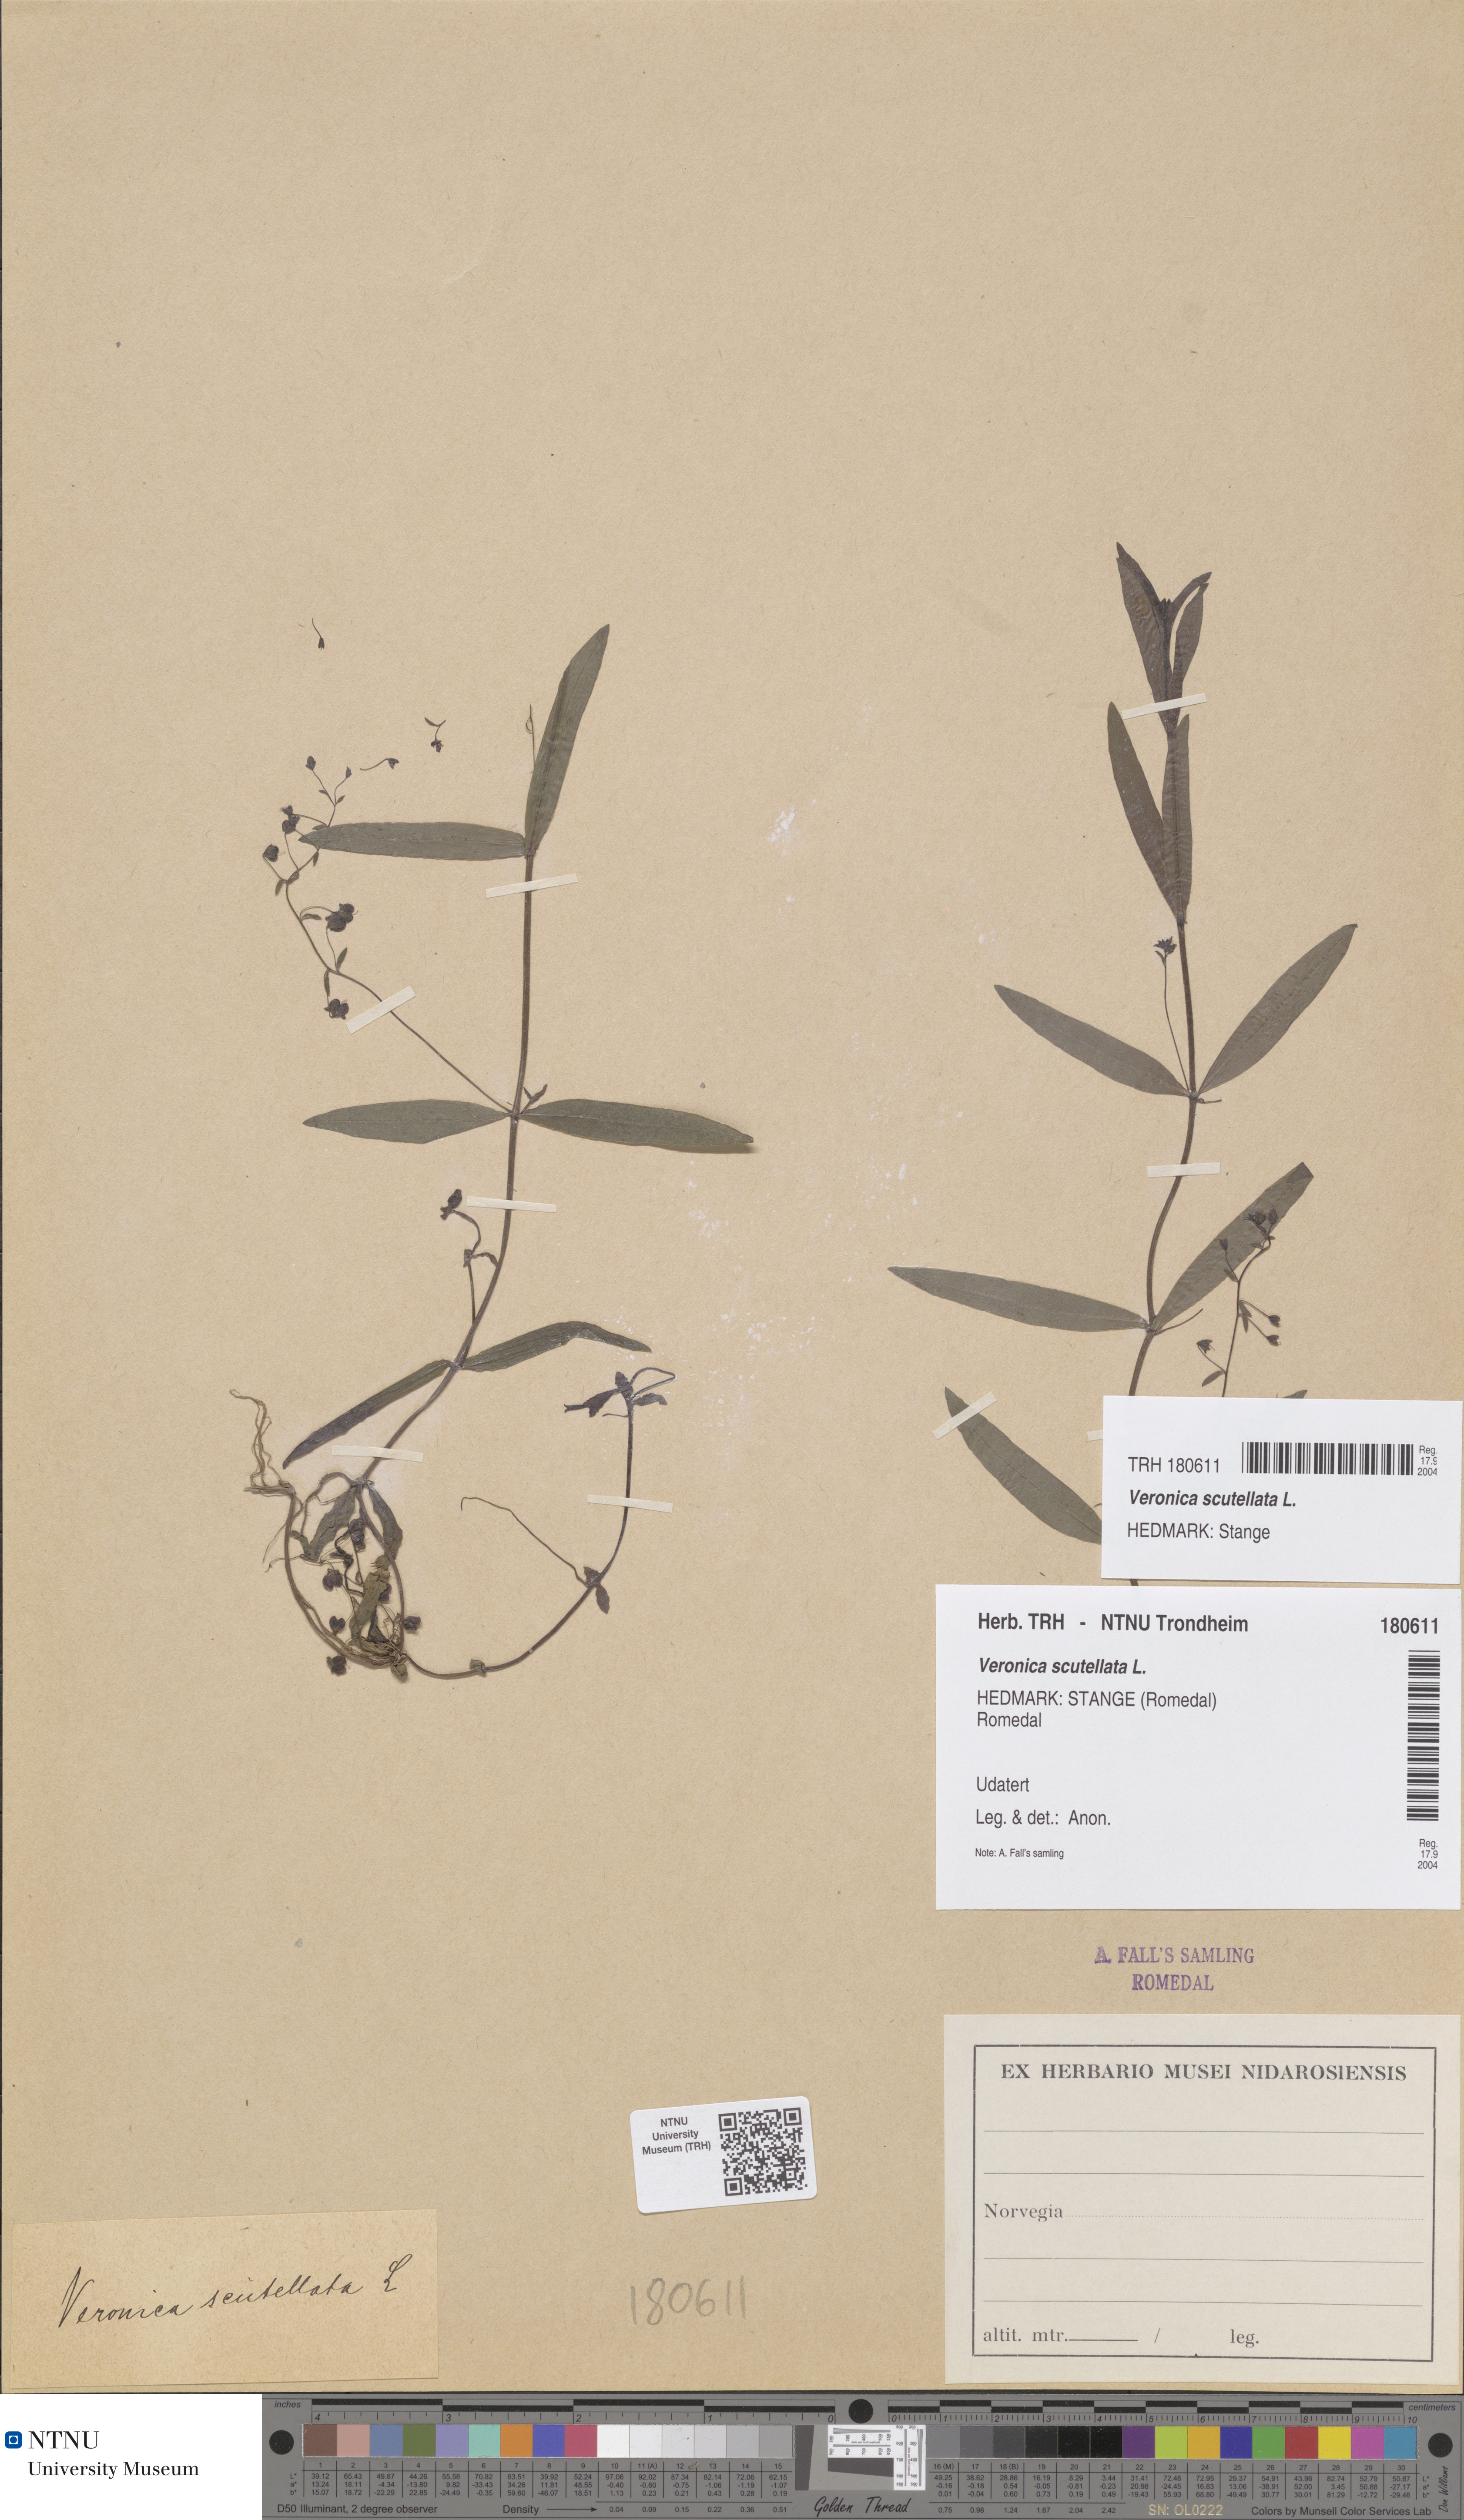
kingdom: Plantae
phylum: Tracheophyta
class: Magnoliopsida
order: Lamiales
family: Plantaginaceae
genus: Veronica
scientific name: Veronica scutellata
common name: Marsh speedwell
